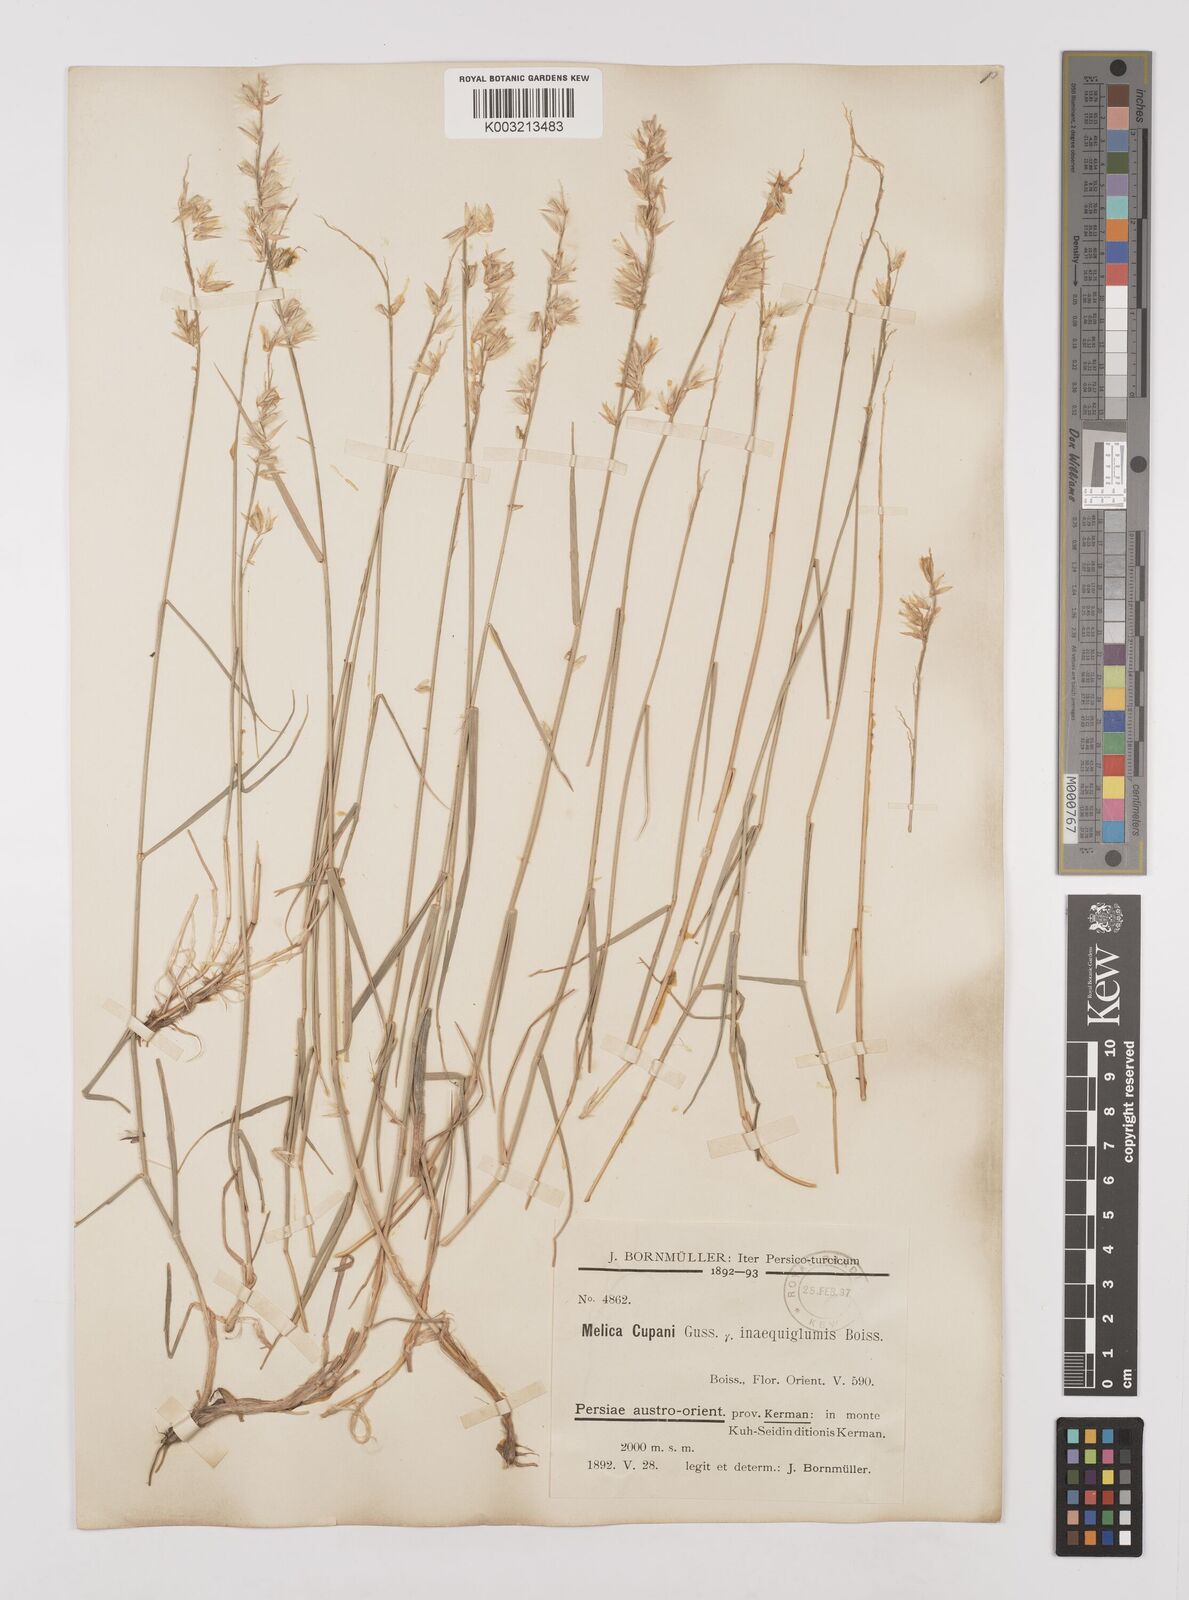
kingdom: Plantae
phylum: Tracheophyta
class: Liliopsida
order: Poales
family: Poaceae
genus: Melica
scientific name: Melica persica
